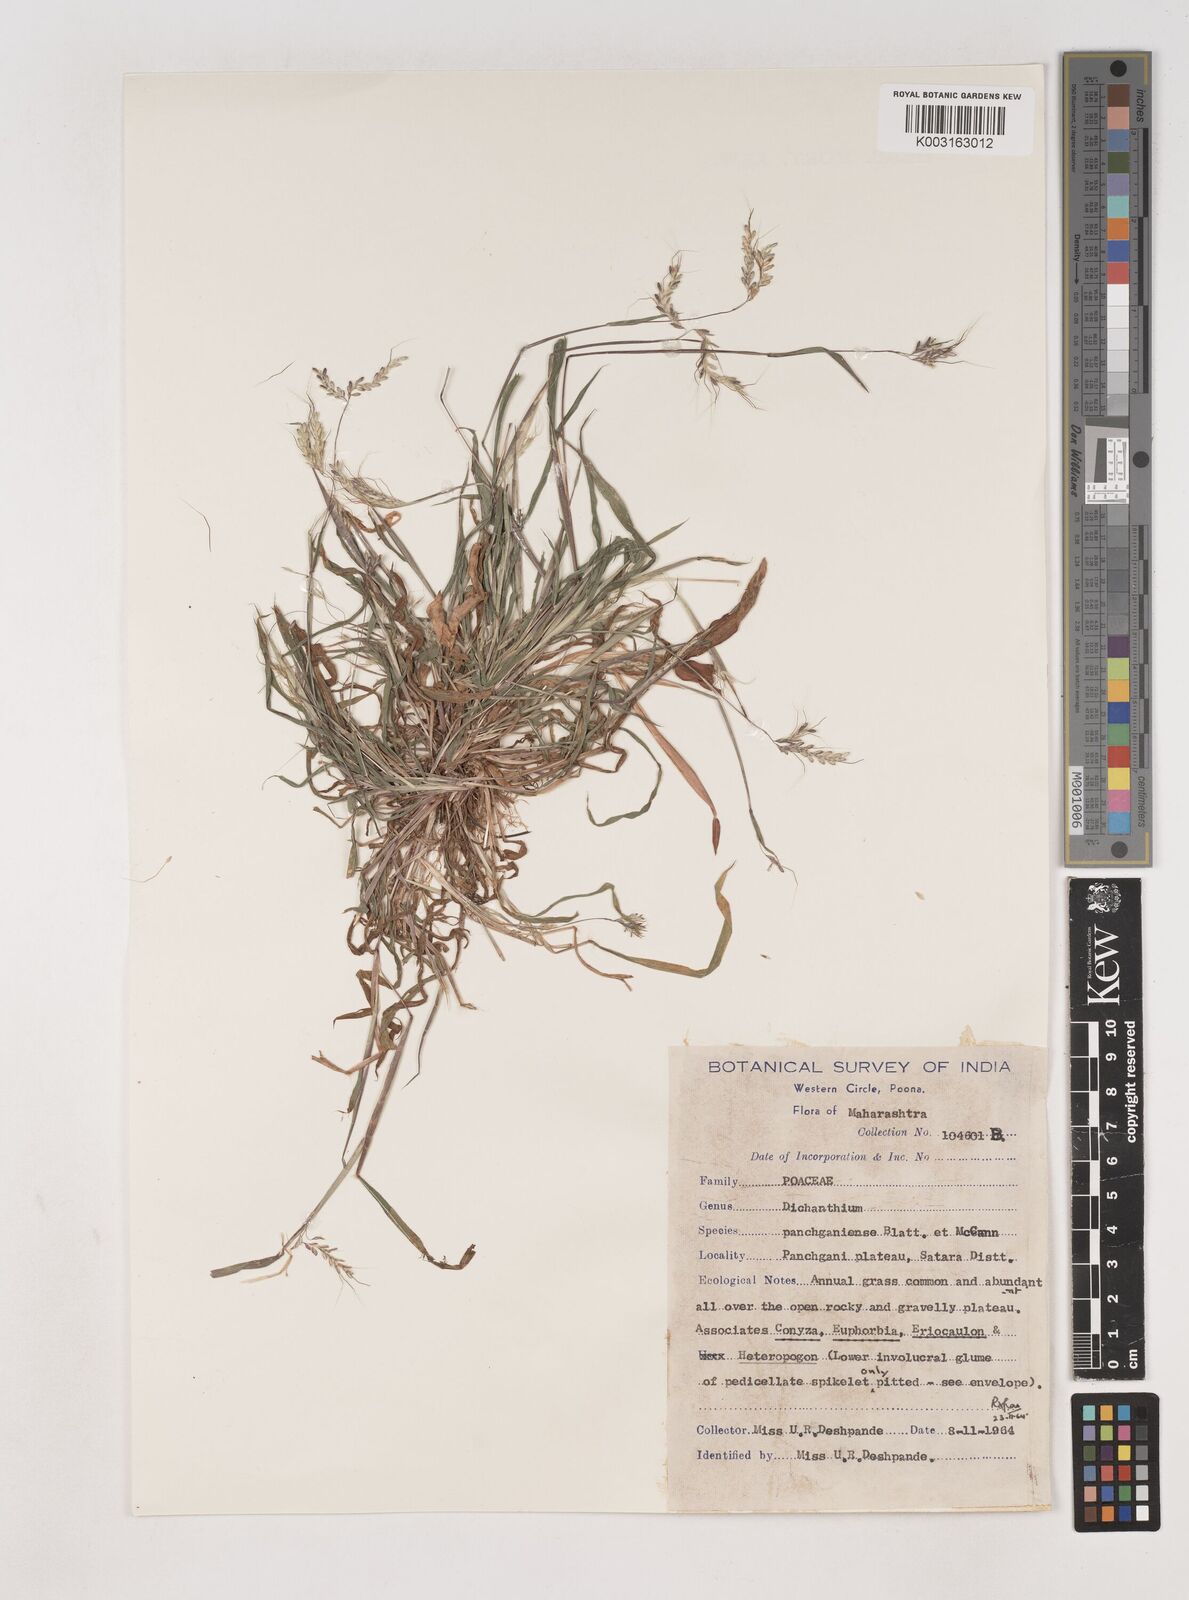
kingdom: Plantae
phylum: Tracheophyta
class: Liliopsida
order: Poales
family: Poaceae
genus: Dichanthium
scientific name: Dichanthium panchganiense
